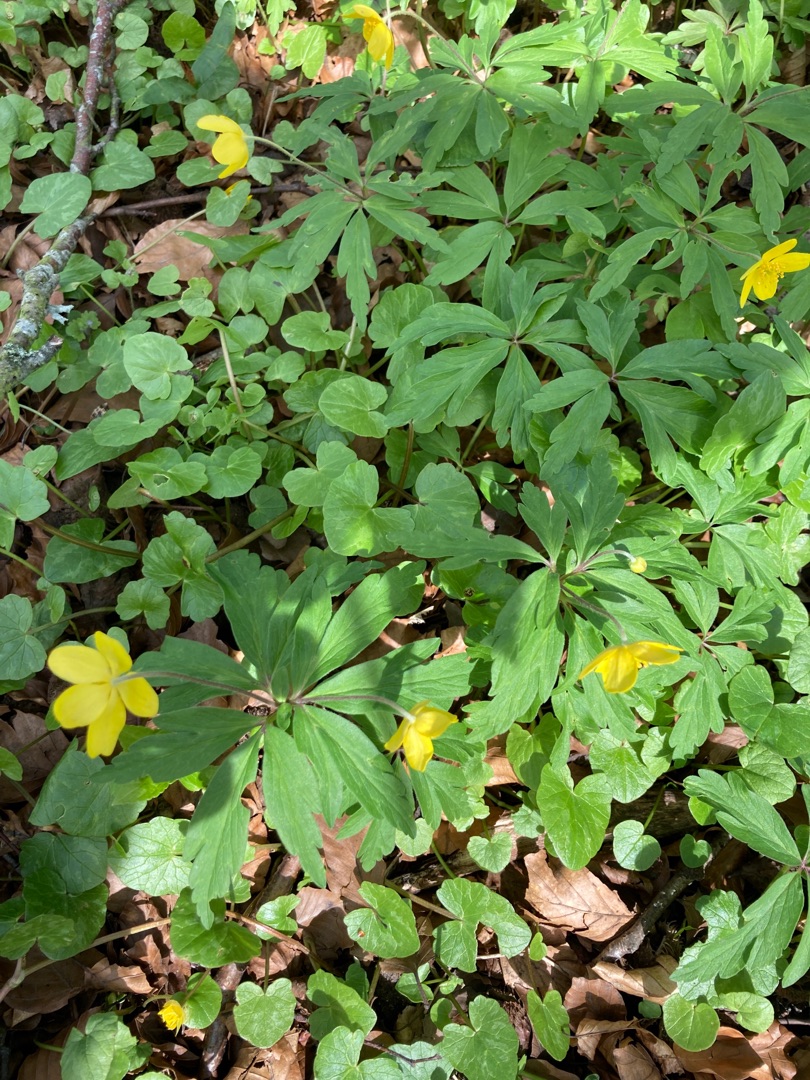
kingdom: Plantae
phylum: Tracheophyta
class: Magnoliopsida
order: Ranunculales
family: Ranunculaceae
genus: Anemone
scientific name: Anemone ranunculoides
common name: Gul anemone
